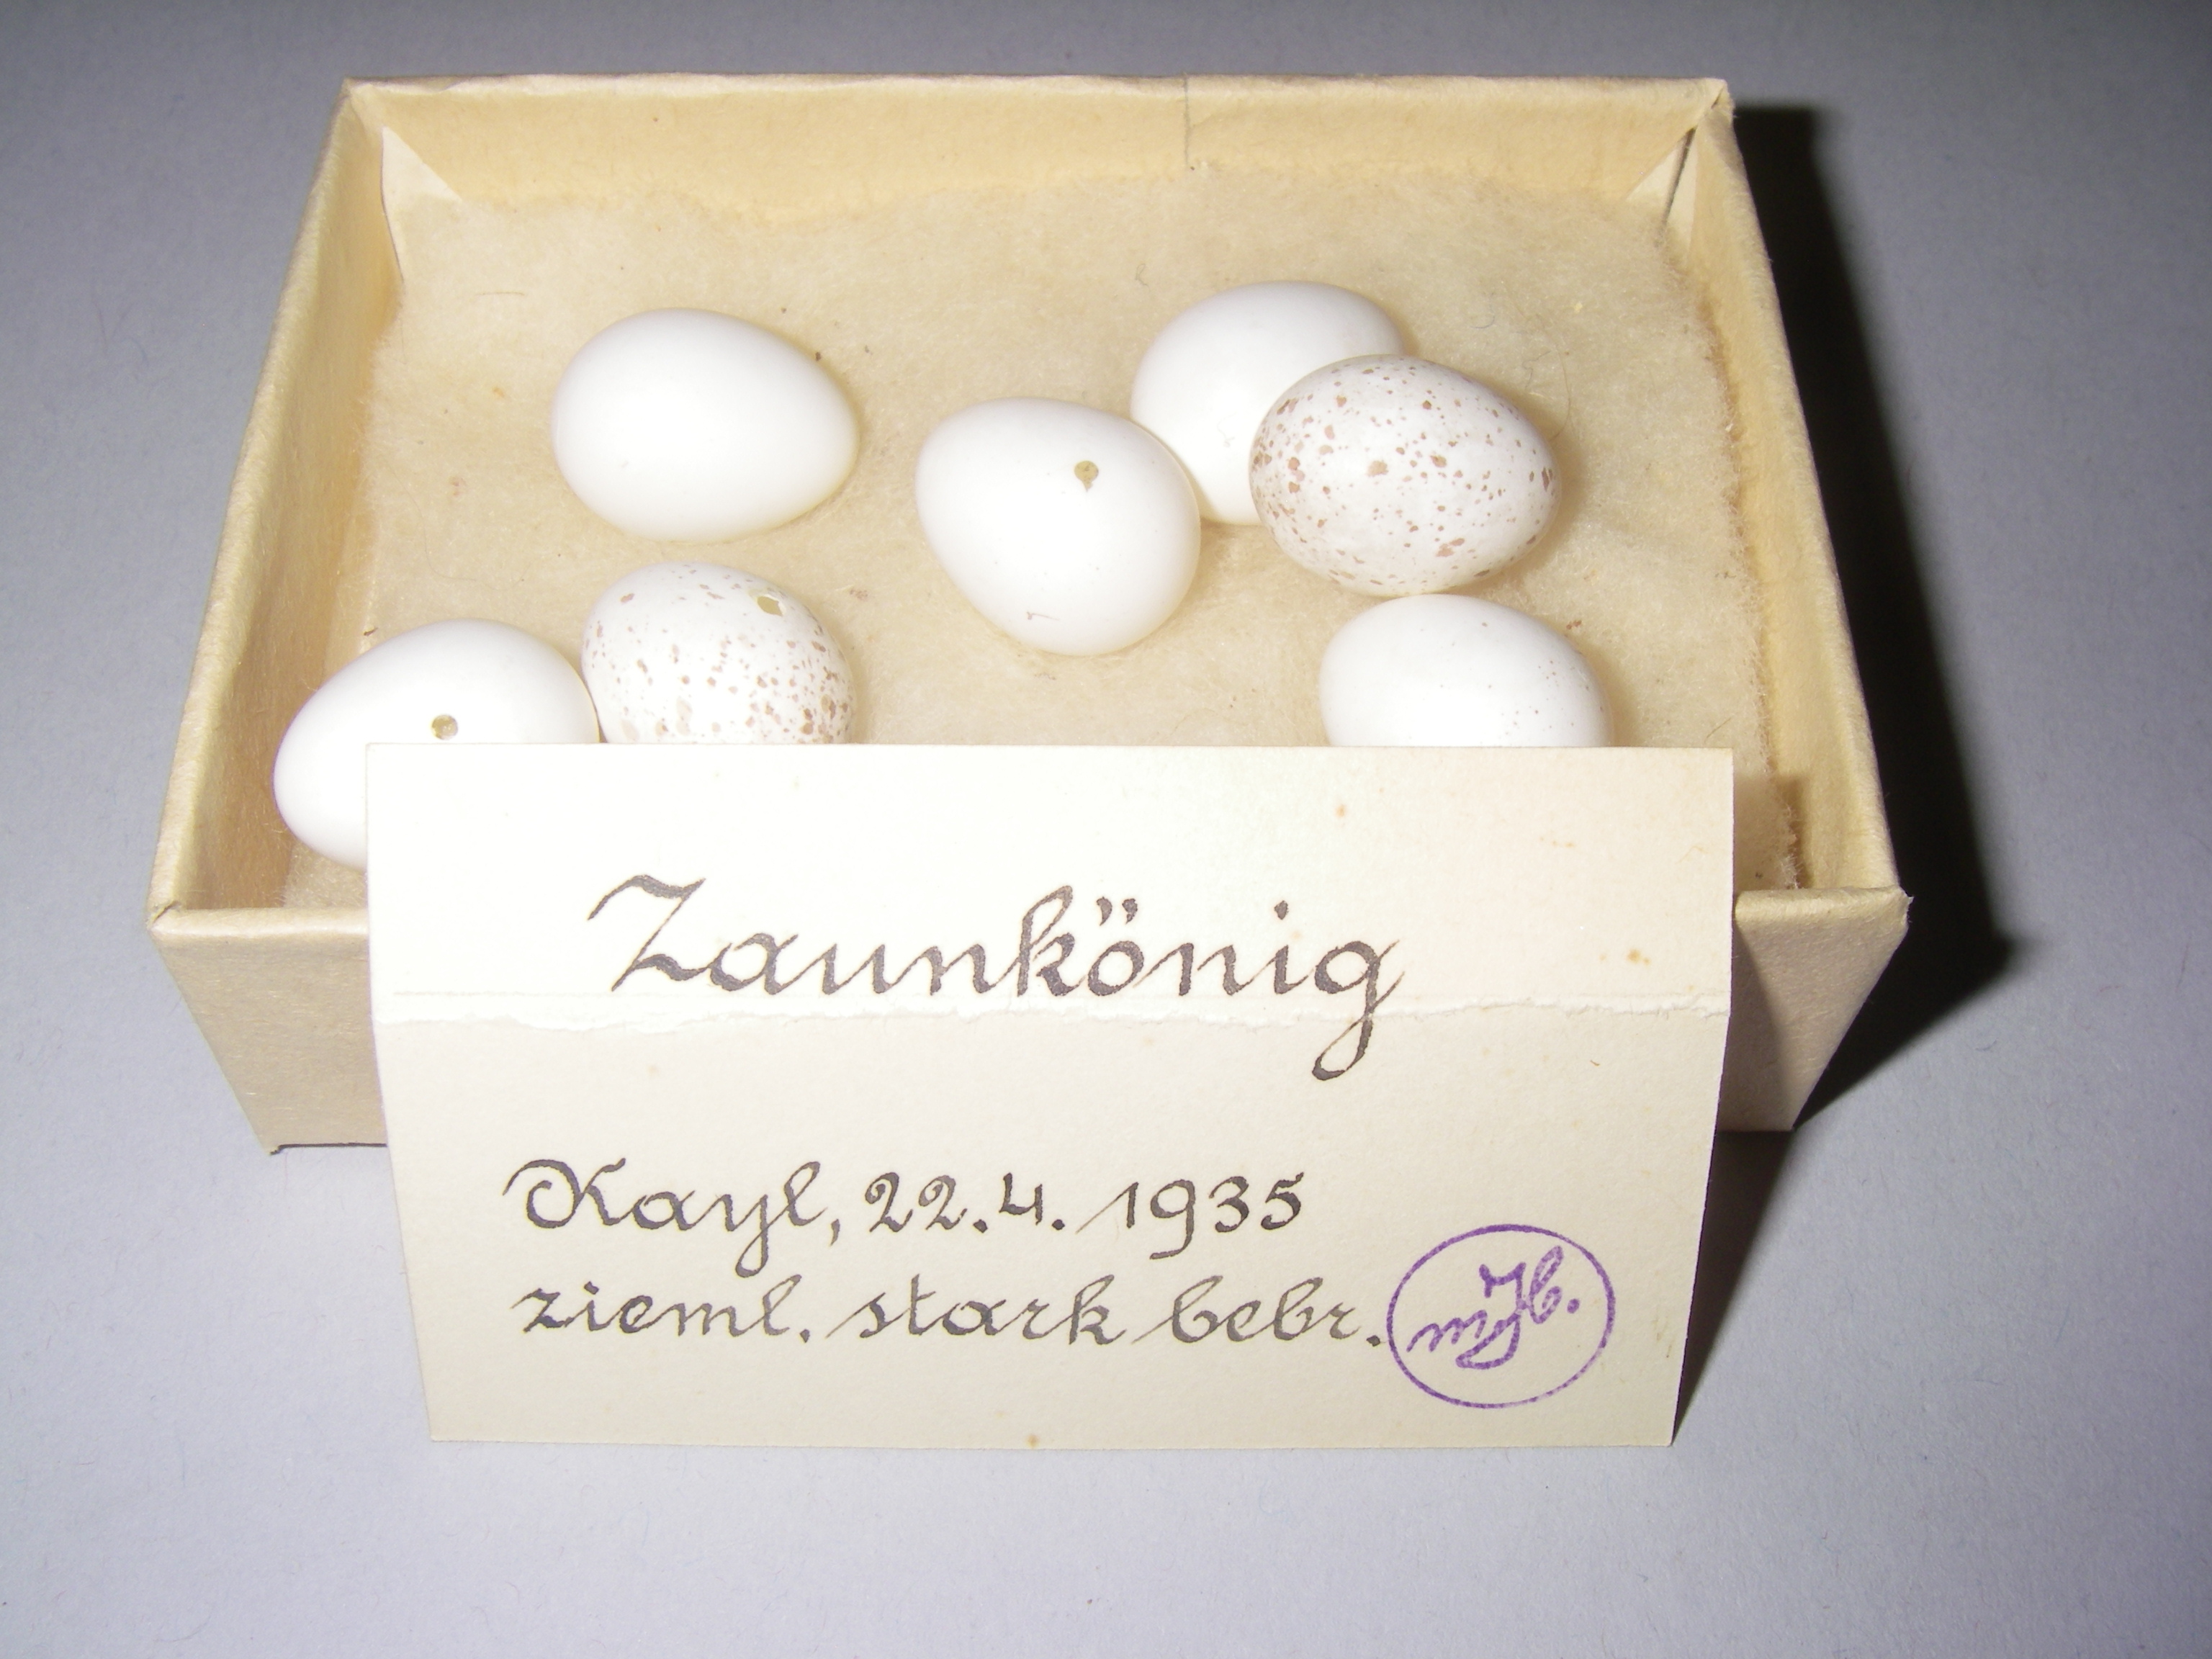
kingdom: Animalia
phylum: Chordata
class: Aves
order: Passeriformes
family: Troglodytidae
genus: Troglodytes
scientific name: Troglodytes troglodytes
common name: Eurasian wren
